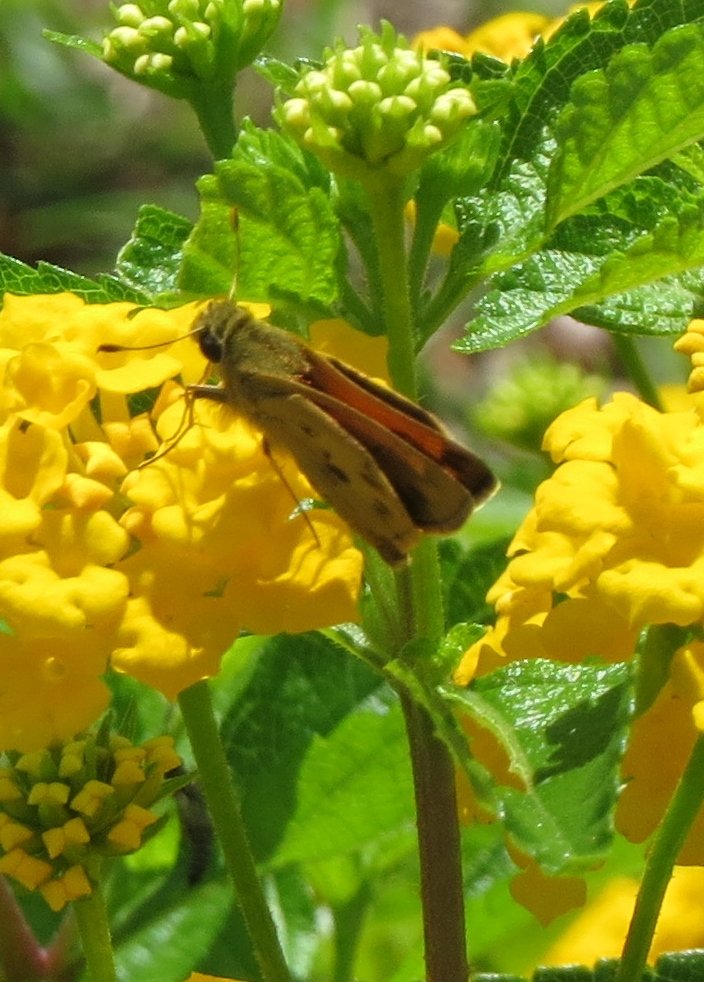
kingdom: Animalia
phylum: Arthropoda
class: Insecta
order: Lepidoptera
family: Hesperiidae
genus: Polites
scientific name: Polites vibex
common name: Whirlabout
